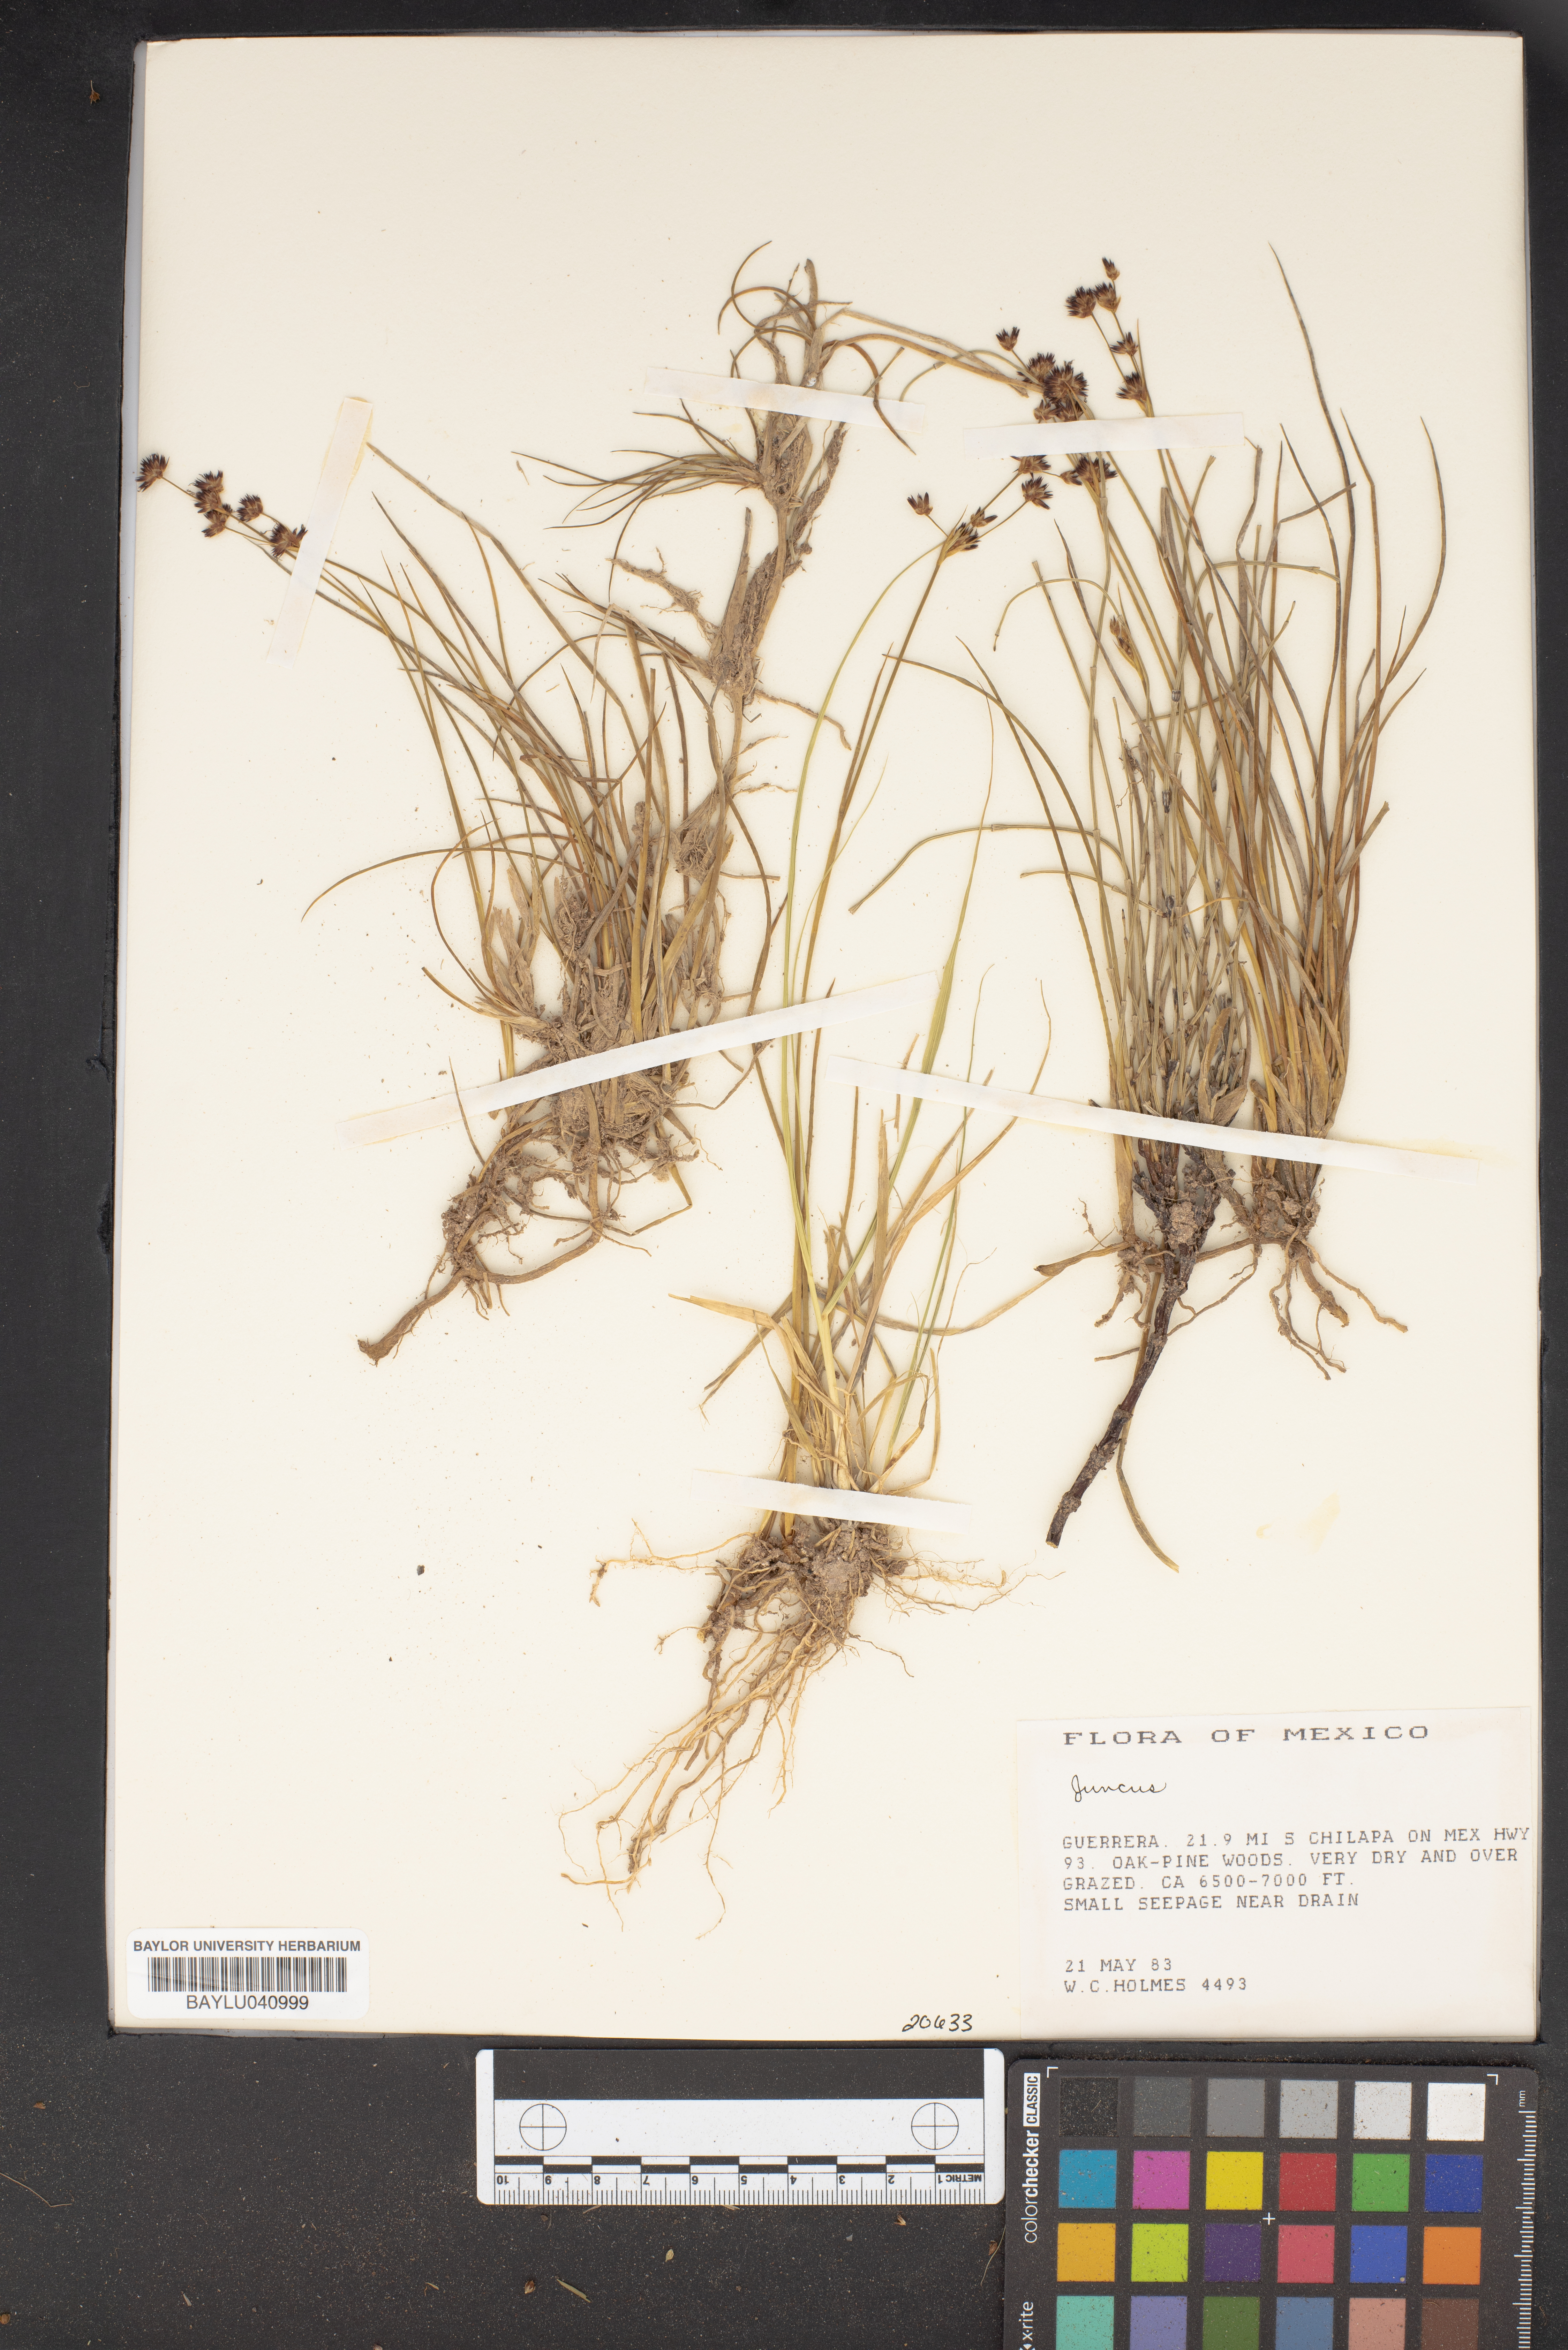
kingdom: Plantae
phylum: Tracheophyta
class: Liliopsida
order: Poales
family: Juncaceae
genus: Juncus
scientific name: Juncus
